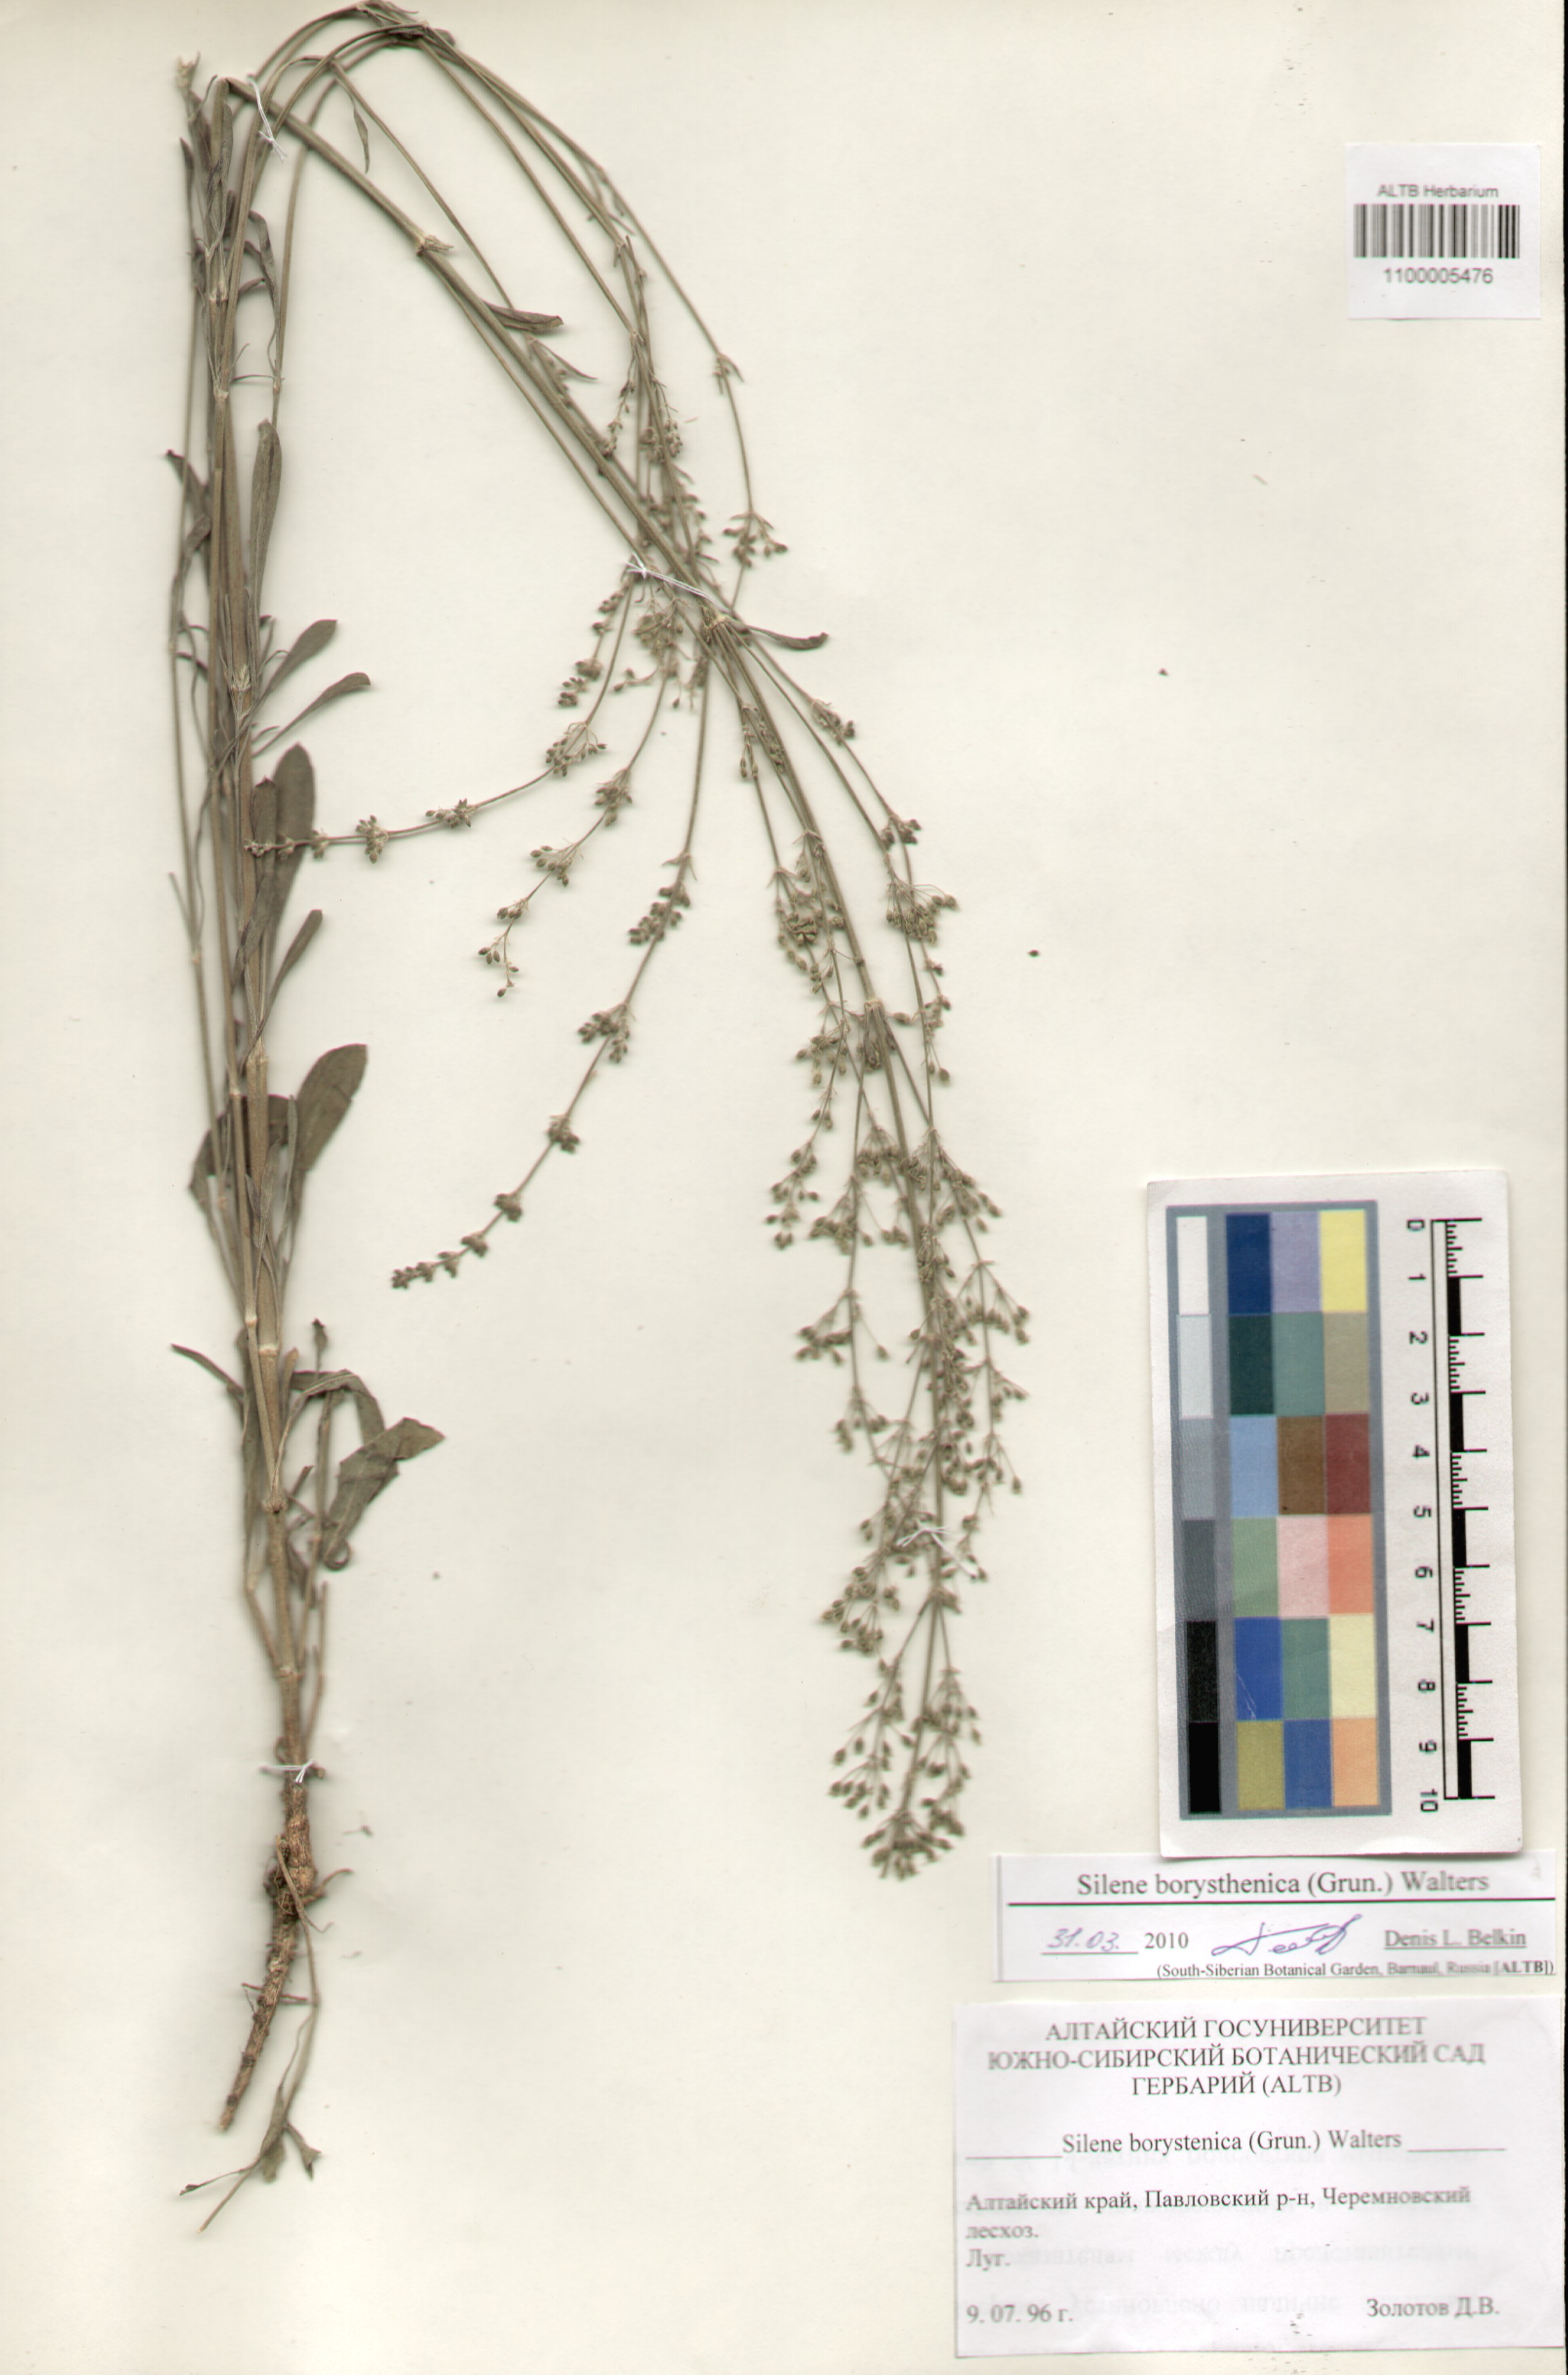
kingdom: Plantae
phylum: Tracheophyta
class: Magnoliopsida
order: Caryophyllales
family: Caryophyllaceae
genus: Silene
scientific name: Silene borysthenica
